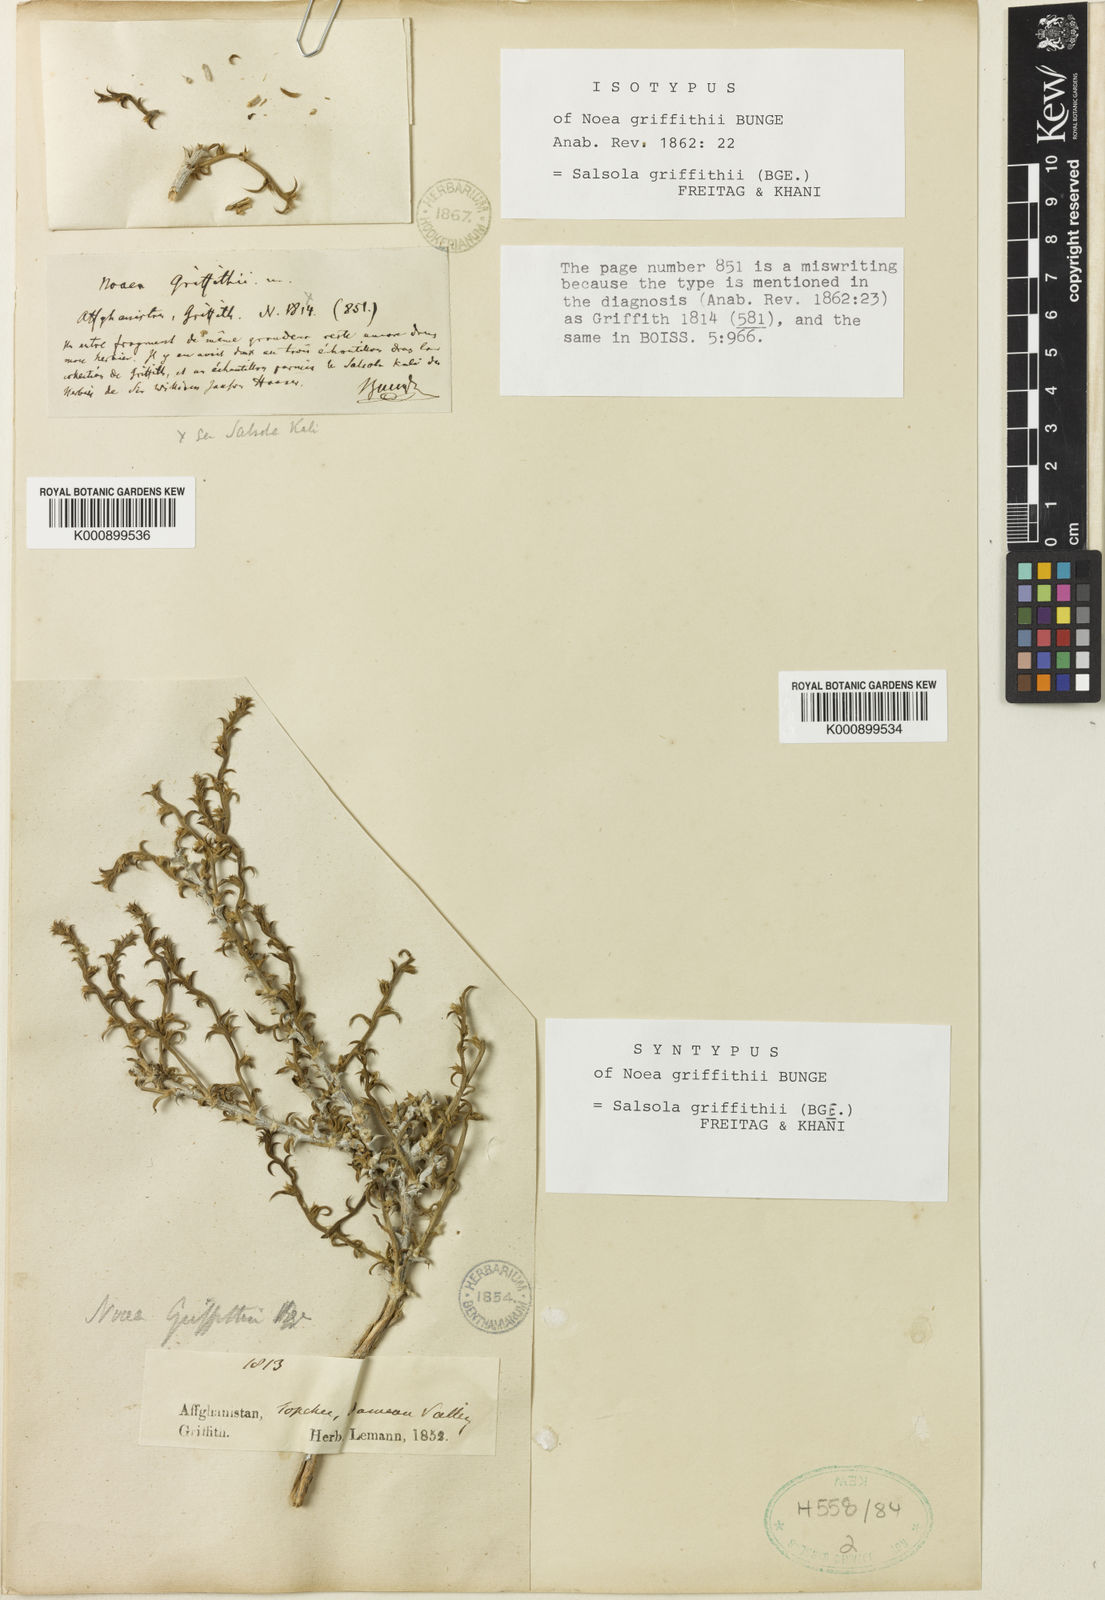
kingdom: Plantae
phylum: Tracheophyta
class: Magnoliopsida
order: Caryophyllales
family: Amaranthaceae
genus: Salsola
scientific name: Salsola griffithii
